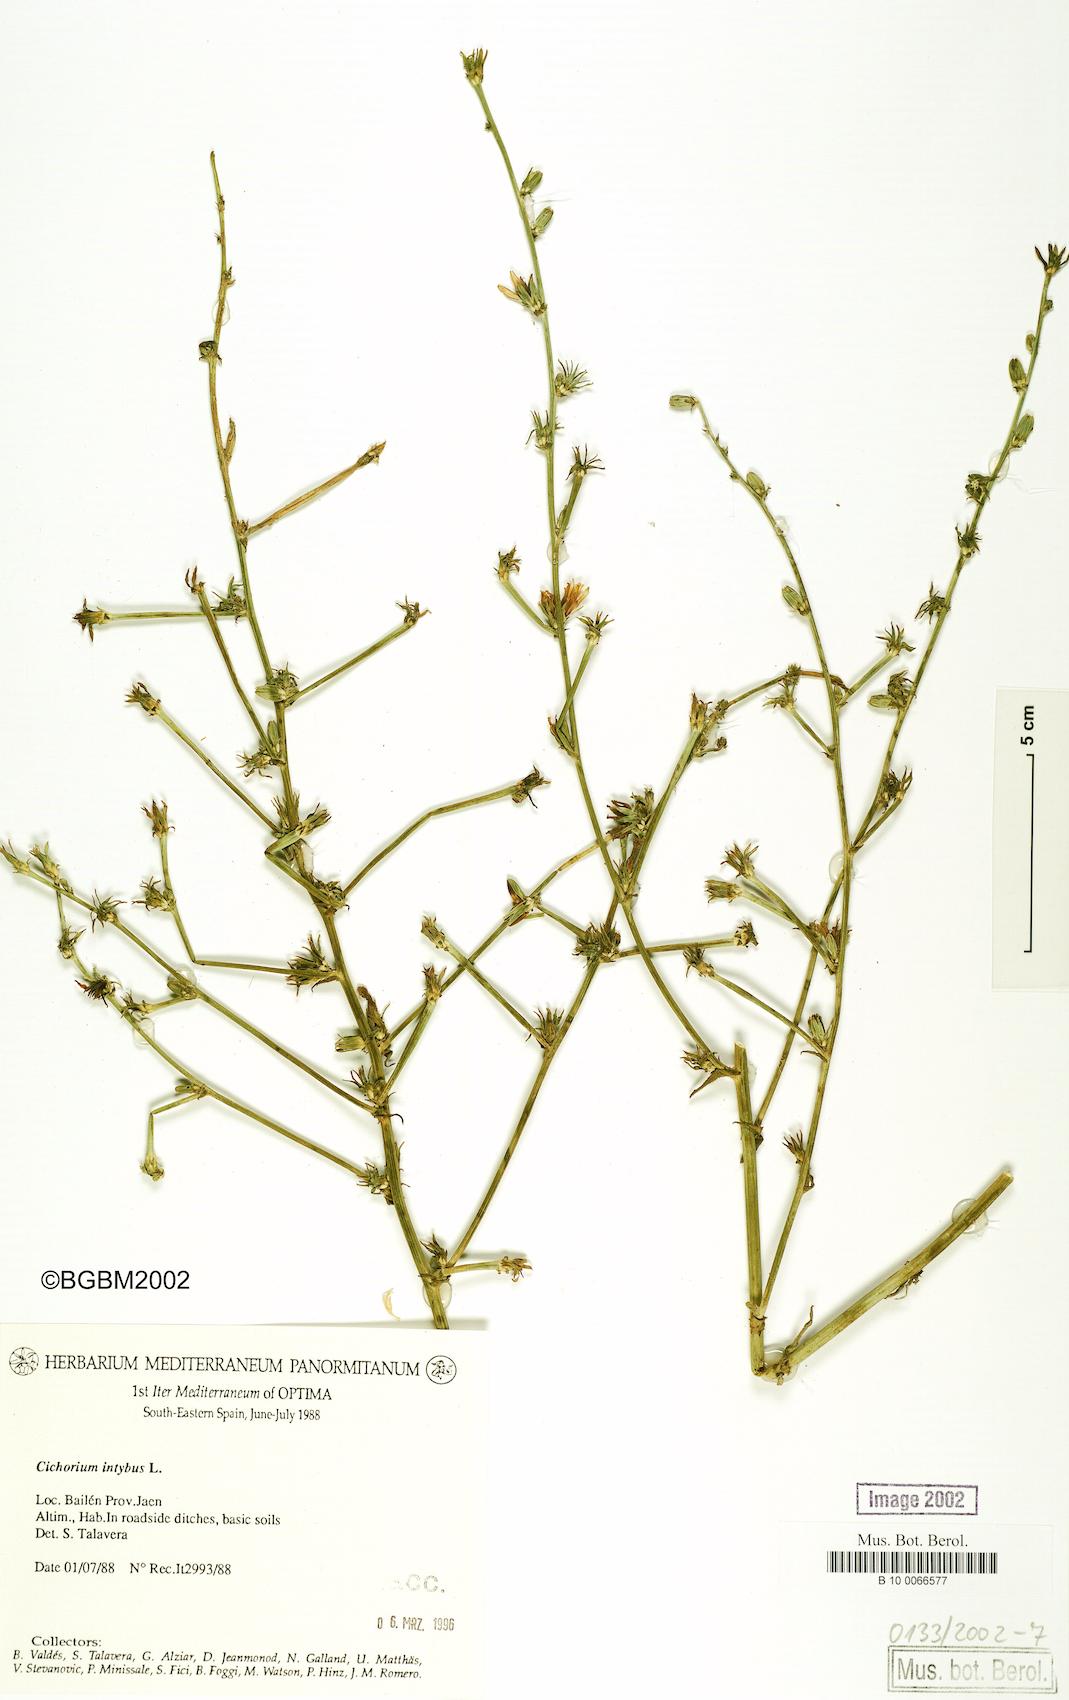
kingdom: Plantae
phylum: Tracheophyta
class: Magnoliopsida
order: Asterales
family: Asteraceae
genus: Cichorium
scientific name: Cichorium intybus
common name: Chicory
